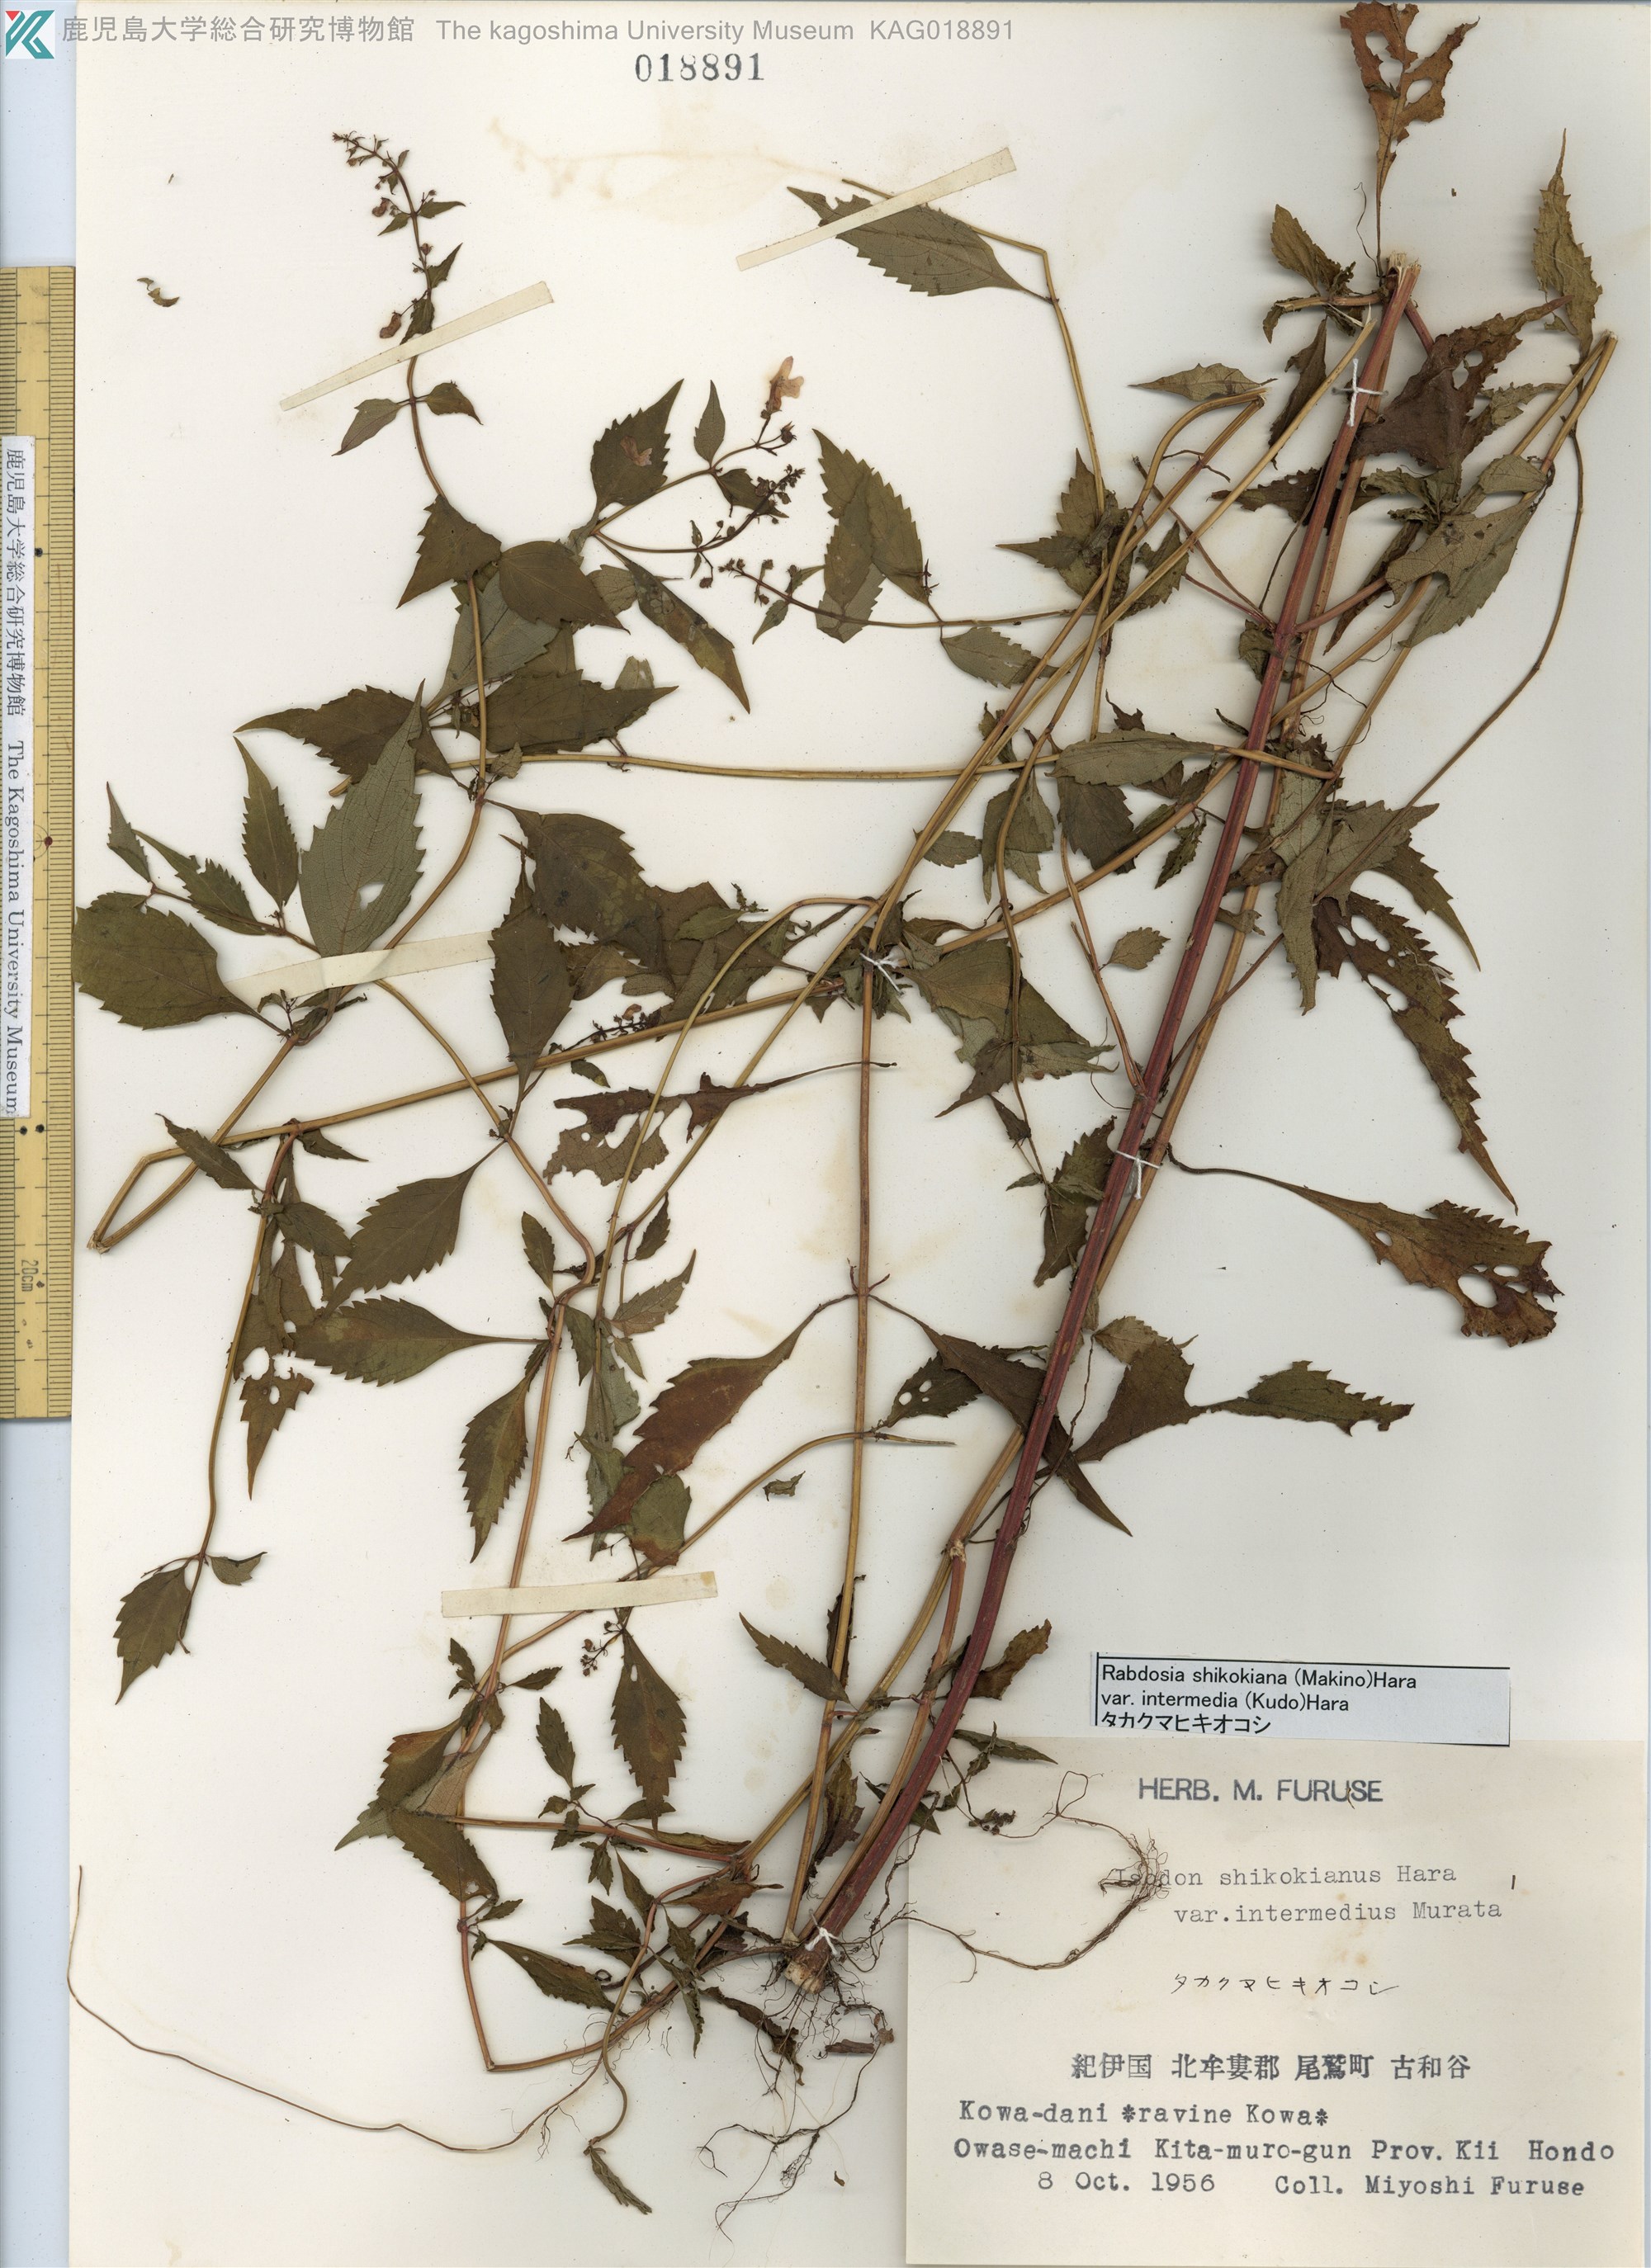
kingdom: Plantae
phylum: Tracheophyta
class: Magnoliopsida
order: Lamiales
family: Lamiaceae
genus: Isodon
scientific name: Isodon shikokianus
